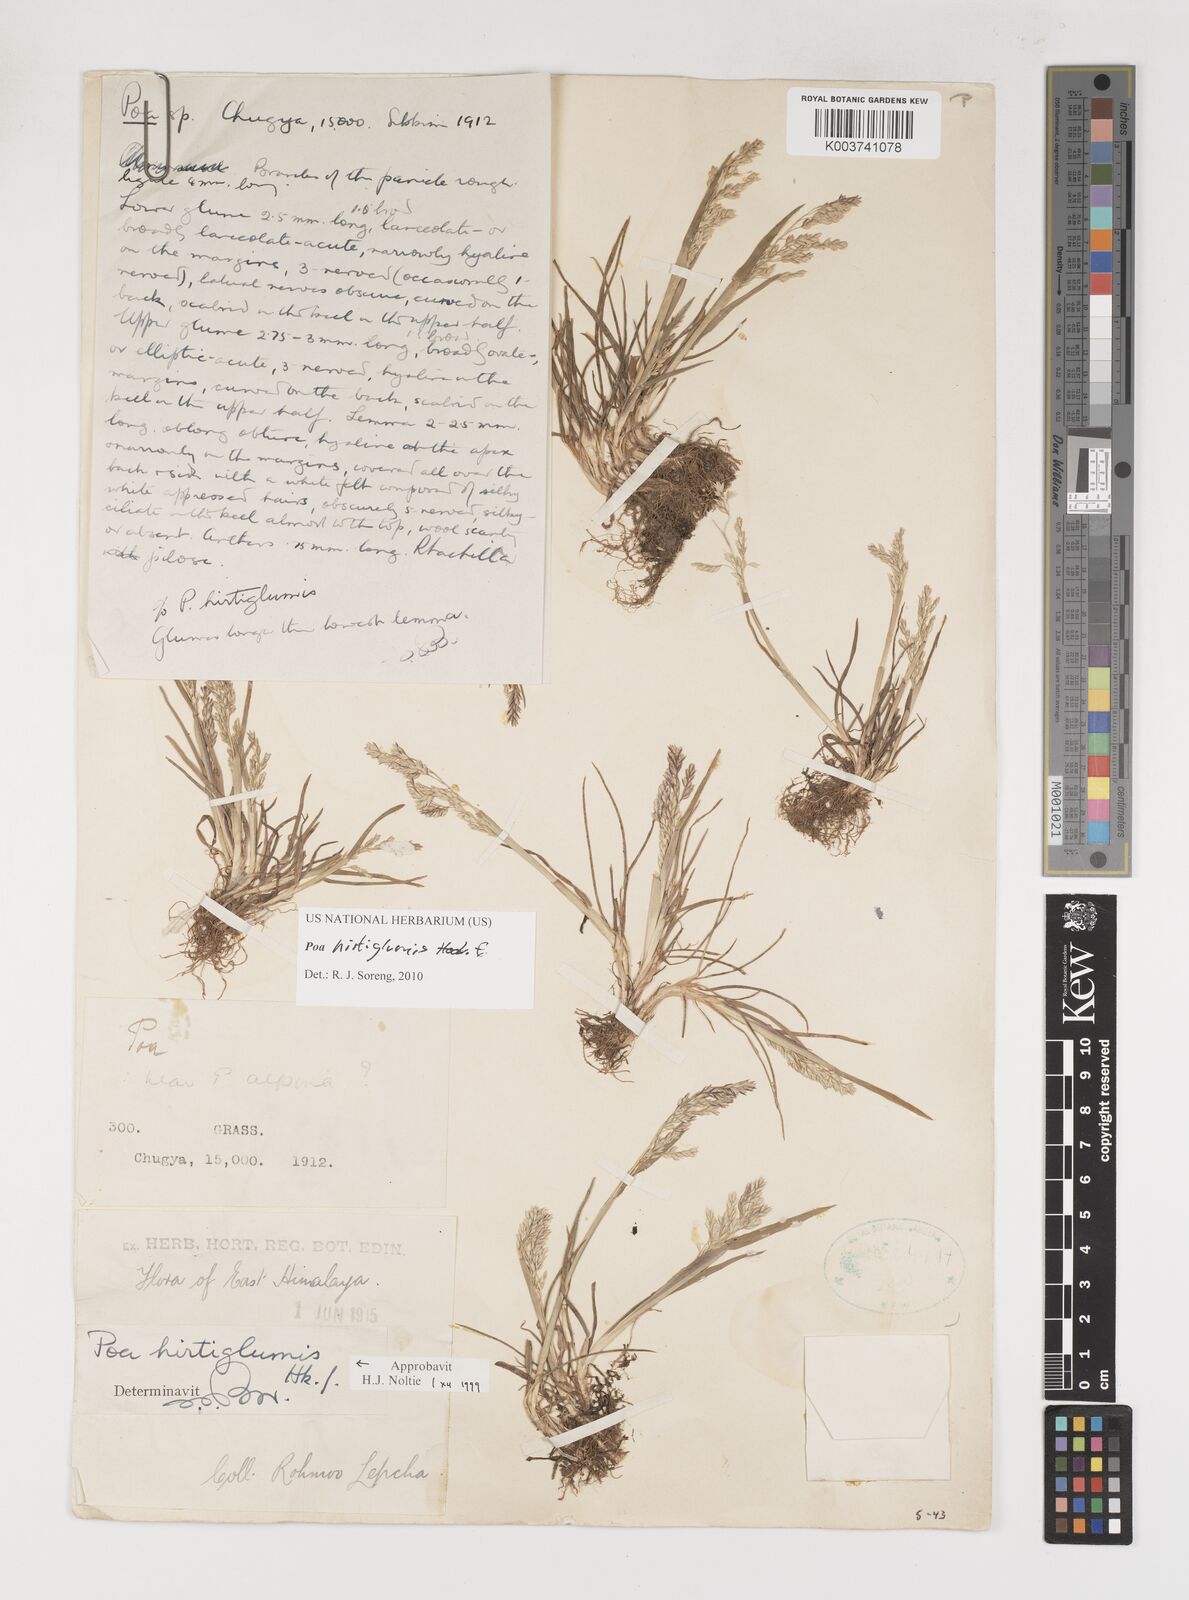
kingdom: Plantae
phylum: Tracheophyta
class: Liliopsida
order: Poales
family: Poaceae
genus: Poa
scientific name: Poa hirtiglumis
